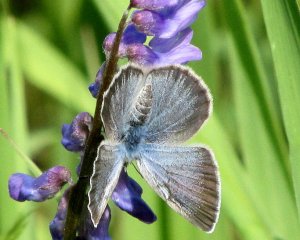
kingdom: Animalia
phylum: Arthropoda
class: Insecta
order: Lepidoptera
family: Lycaenidae
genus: Glaucopsyche
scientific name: Glaucopsyche lygdamus
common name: Silvery Blue
